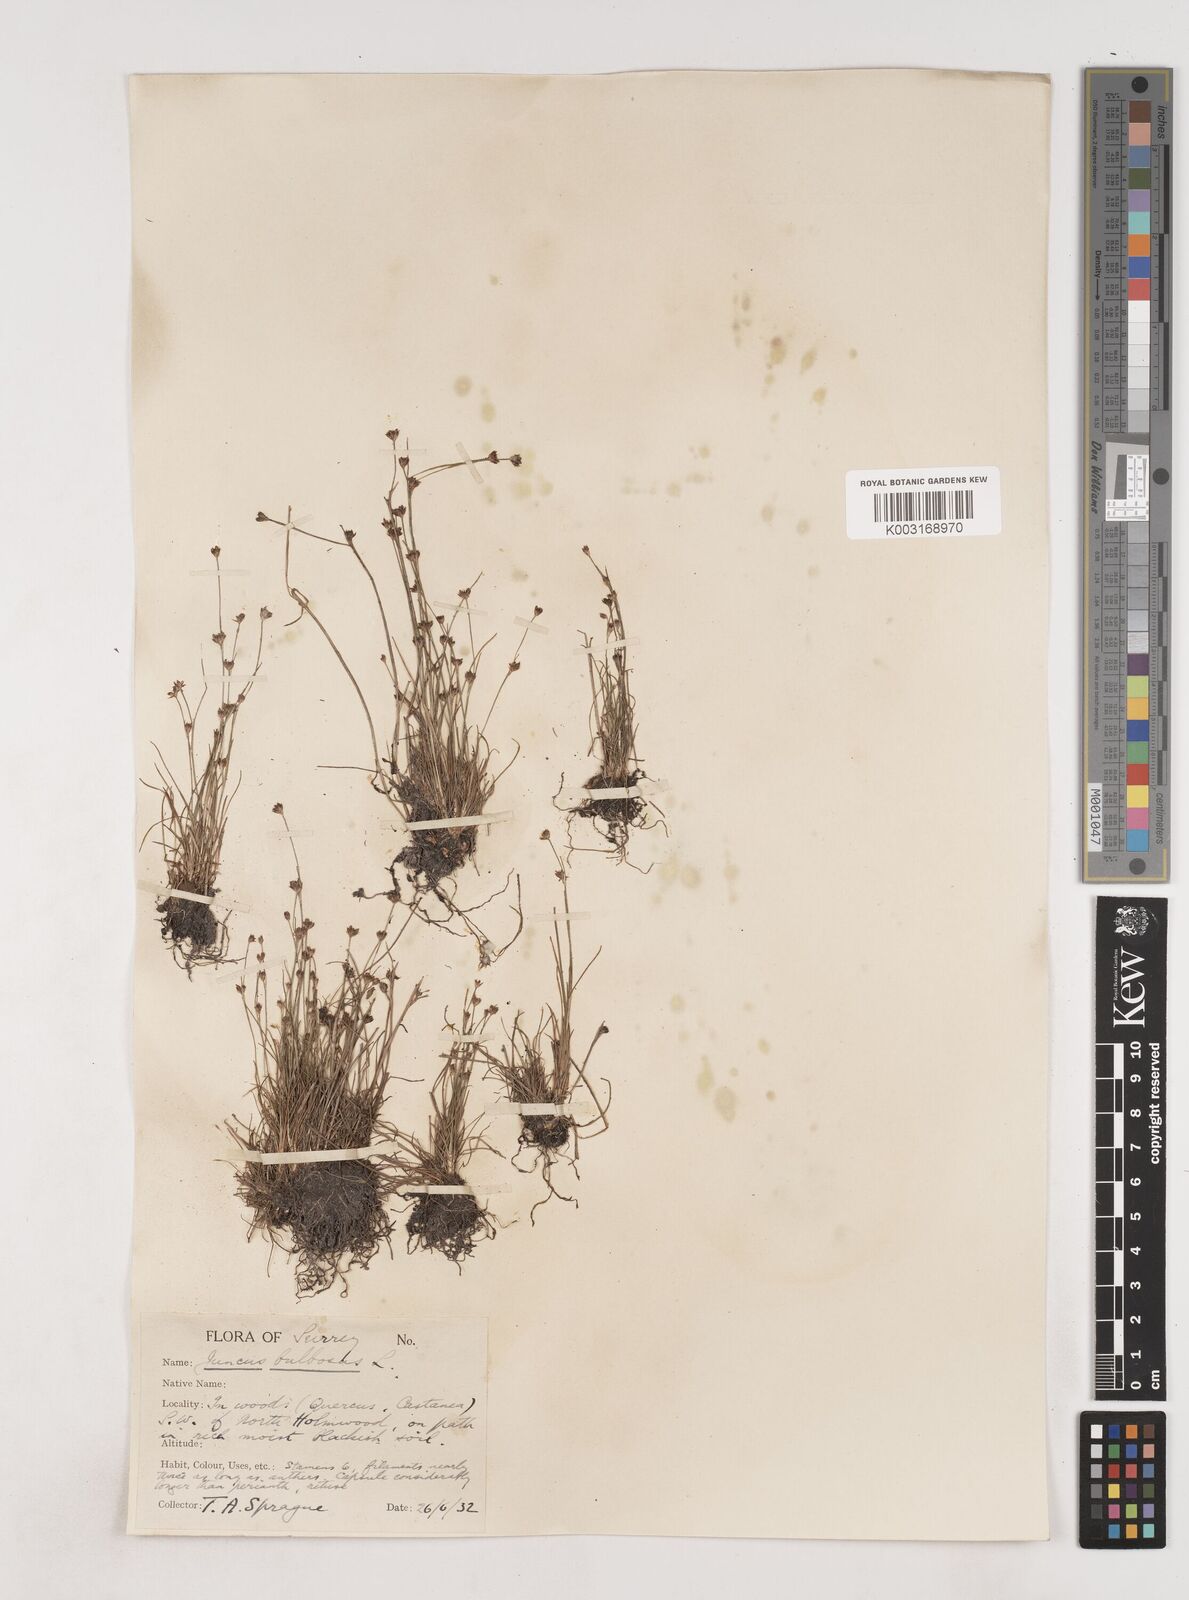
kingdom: Plantae
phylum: Tracheophyta
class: Liliopsida
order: Poales
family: Juncaceae
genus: Juncus
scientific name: Juncus bulbosus
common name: Bulbous rush
